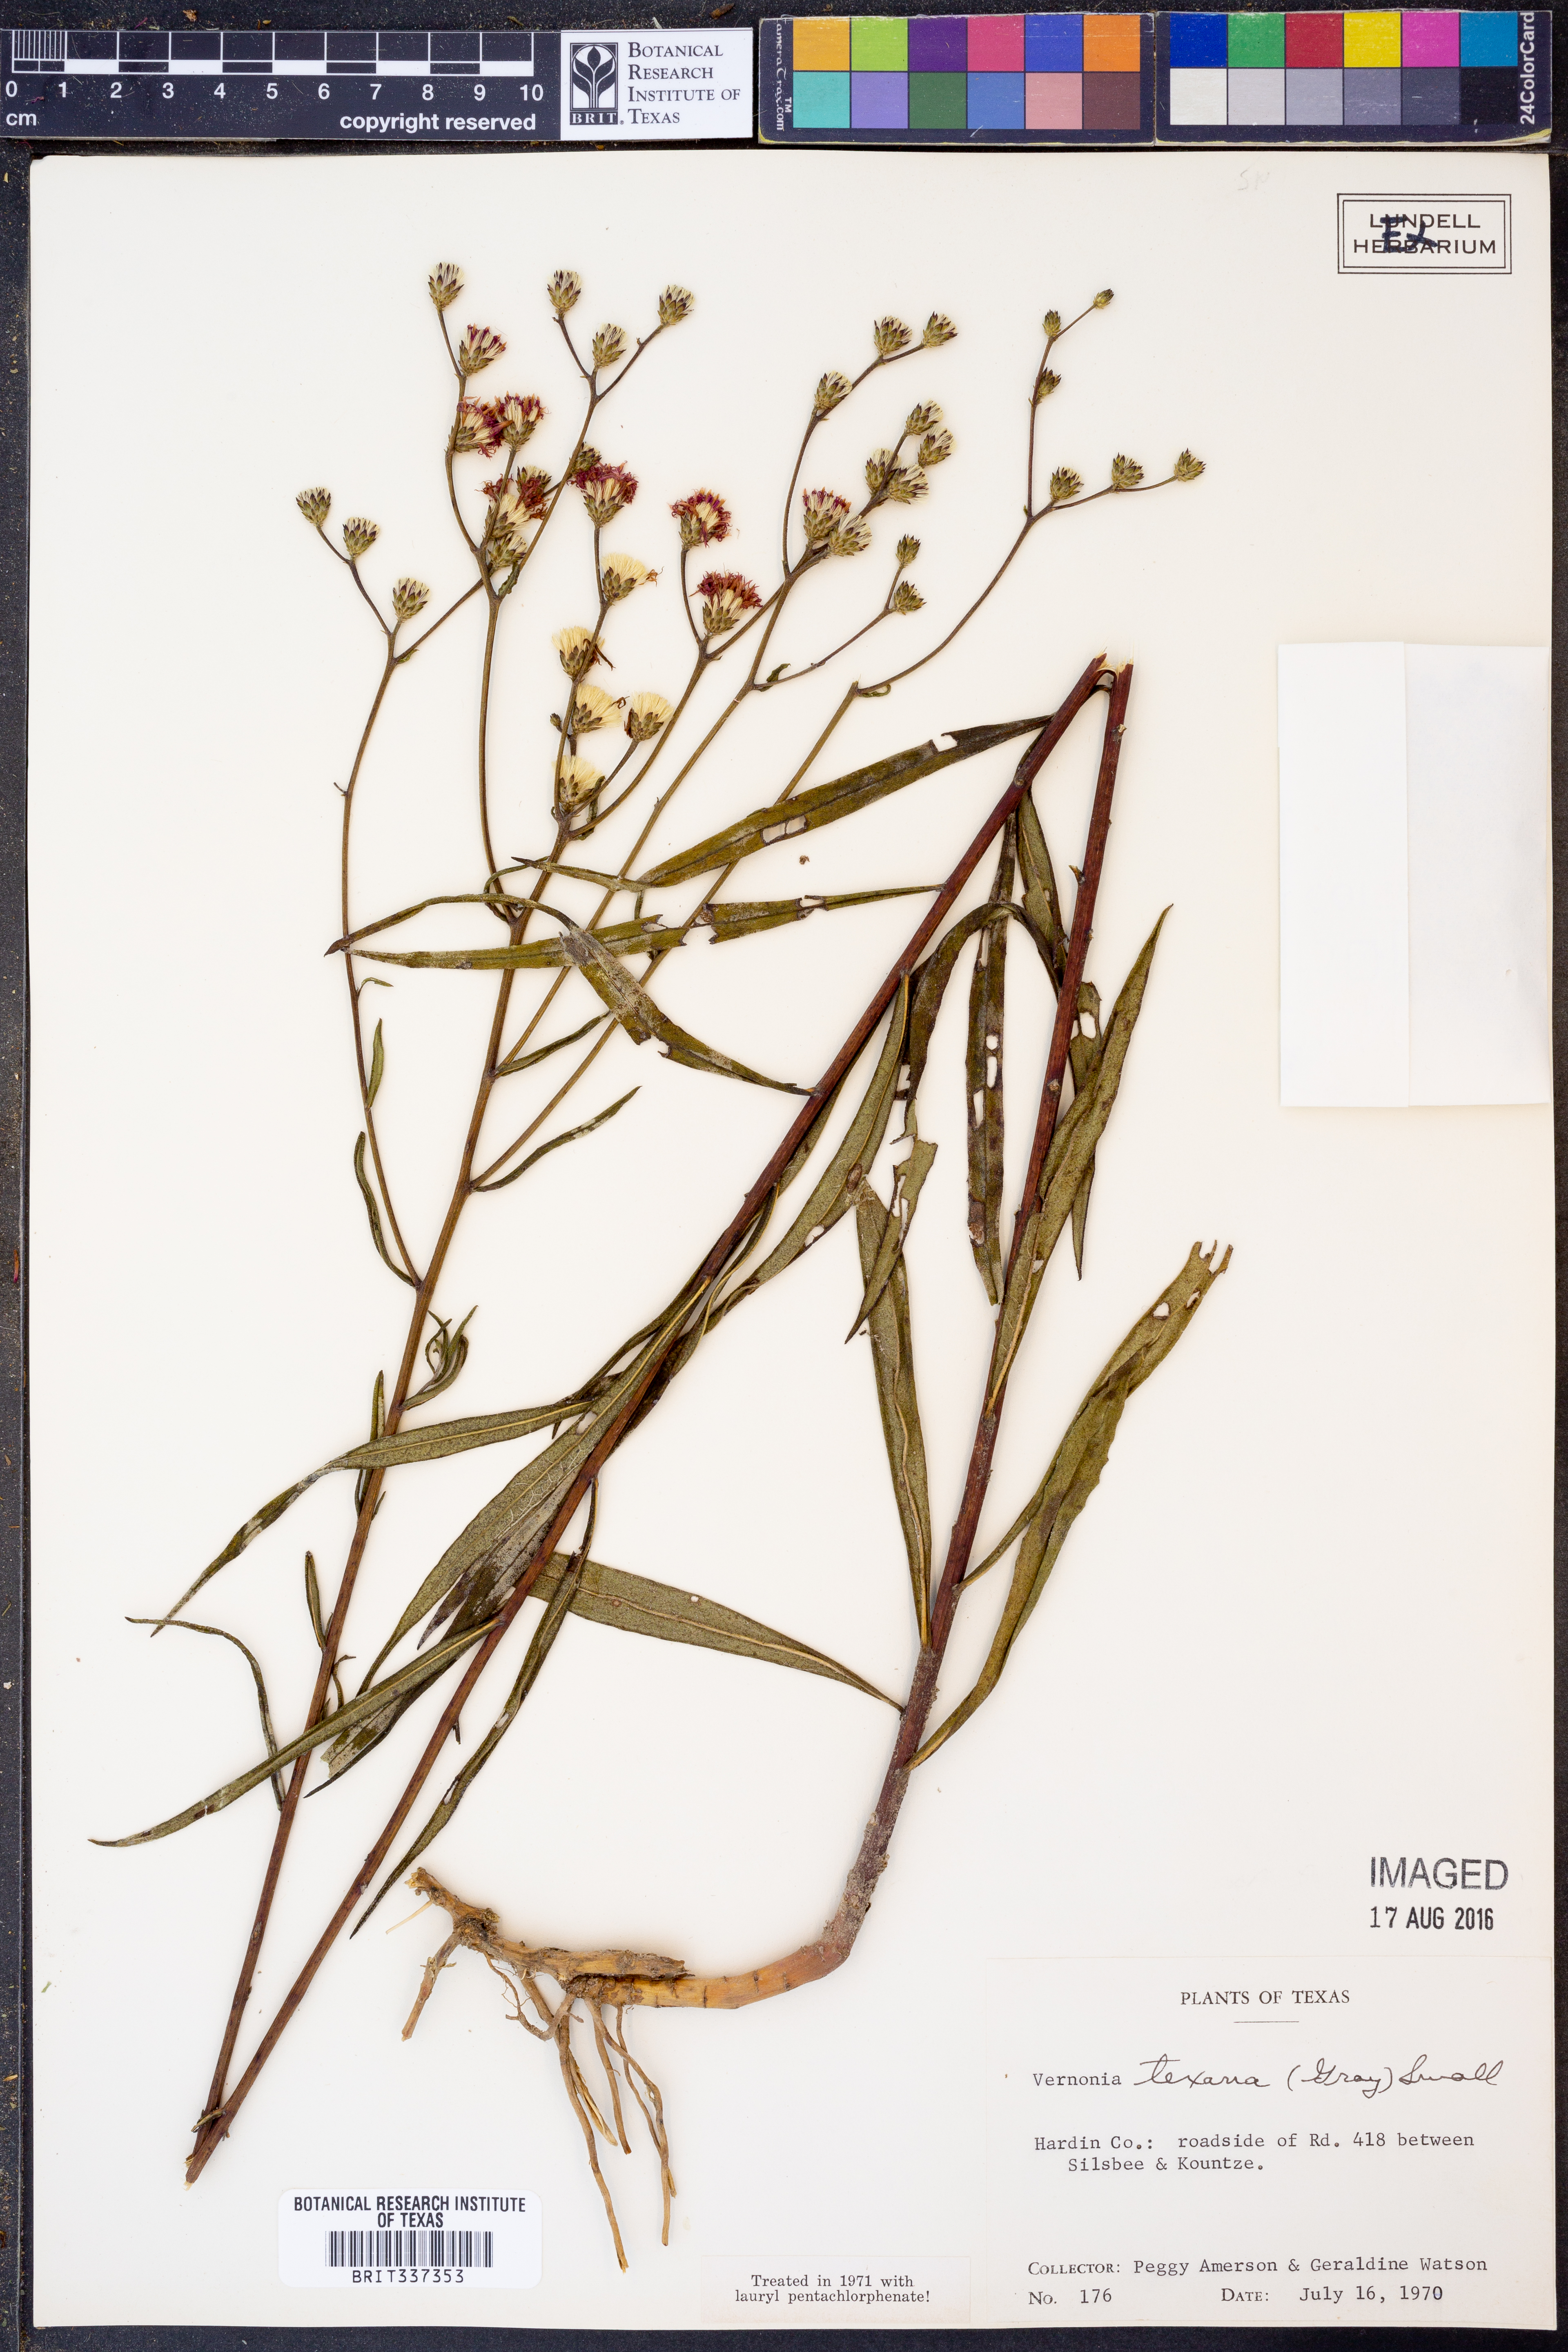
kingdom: Plantae
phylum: Tracheophyta
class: Magnoliopsida
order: Asterales
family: Asteraceae
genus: Vernonia
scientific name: Vernonia texana
